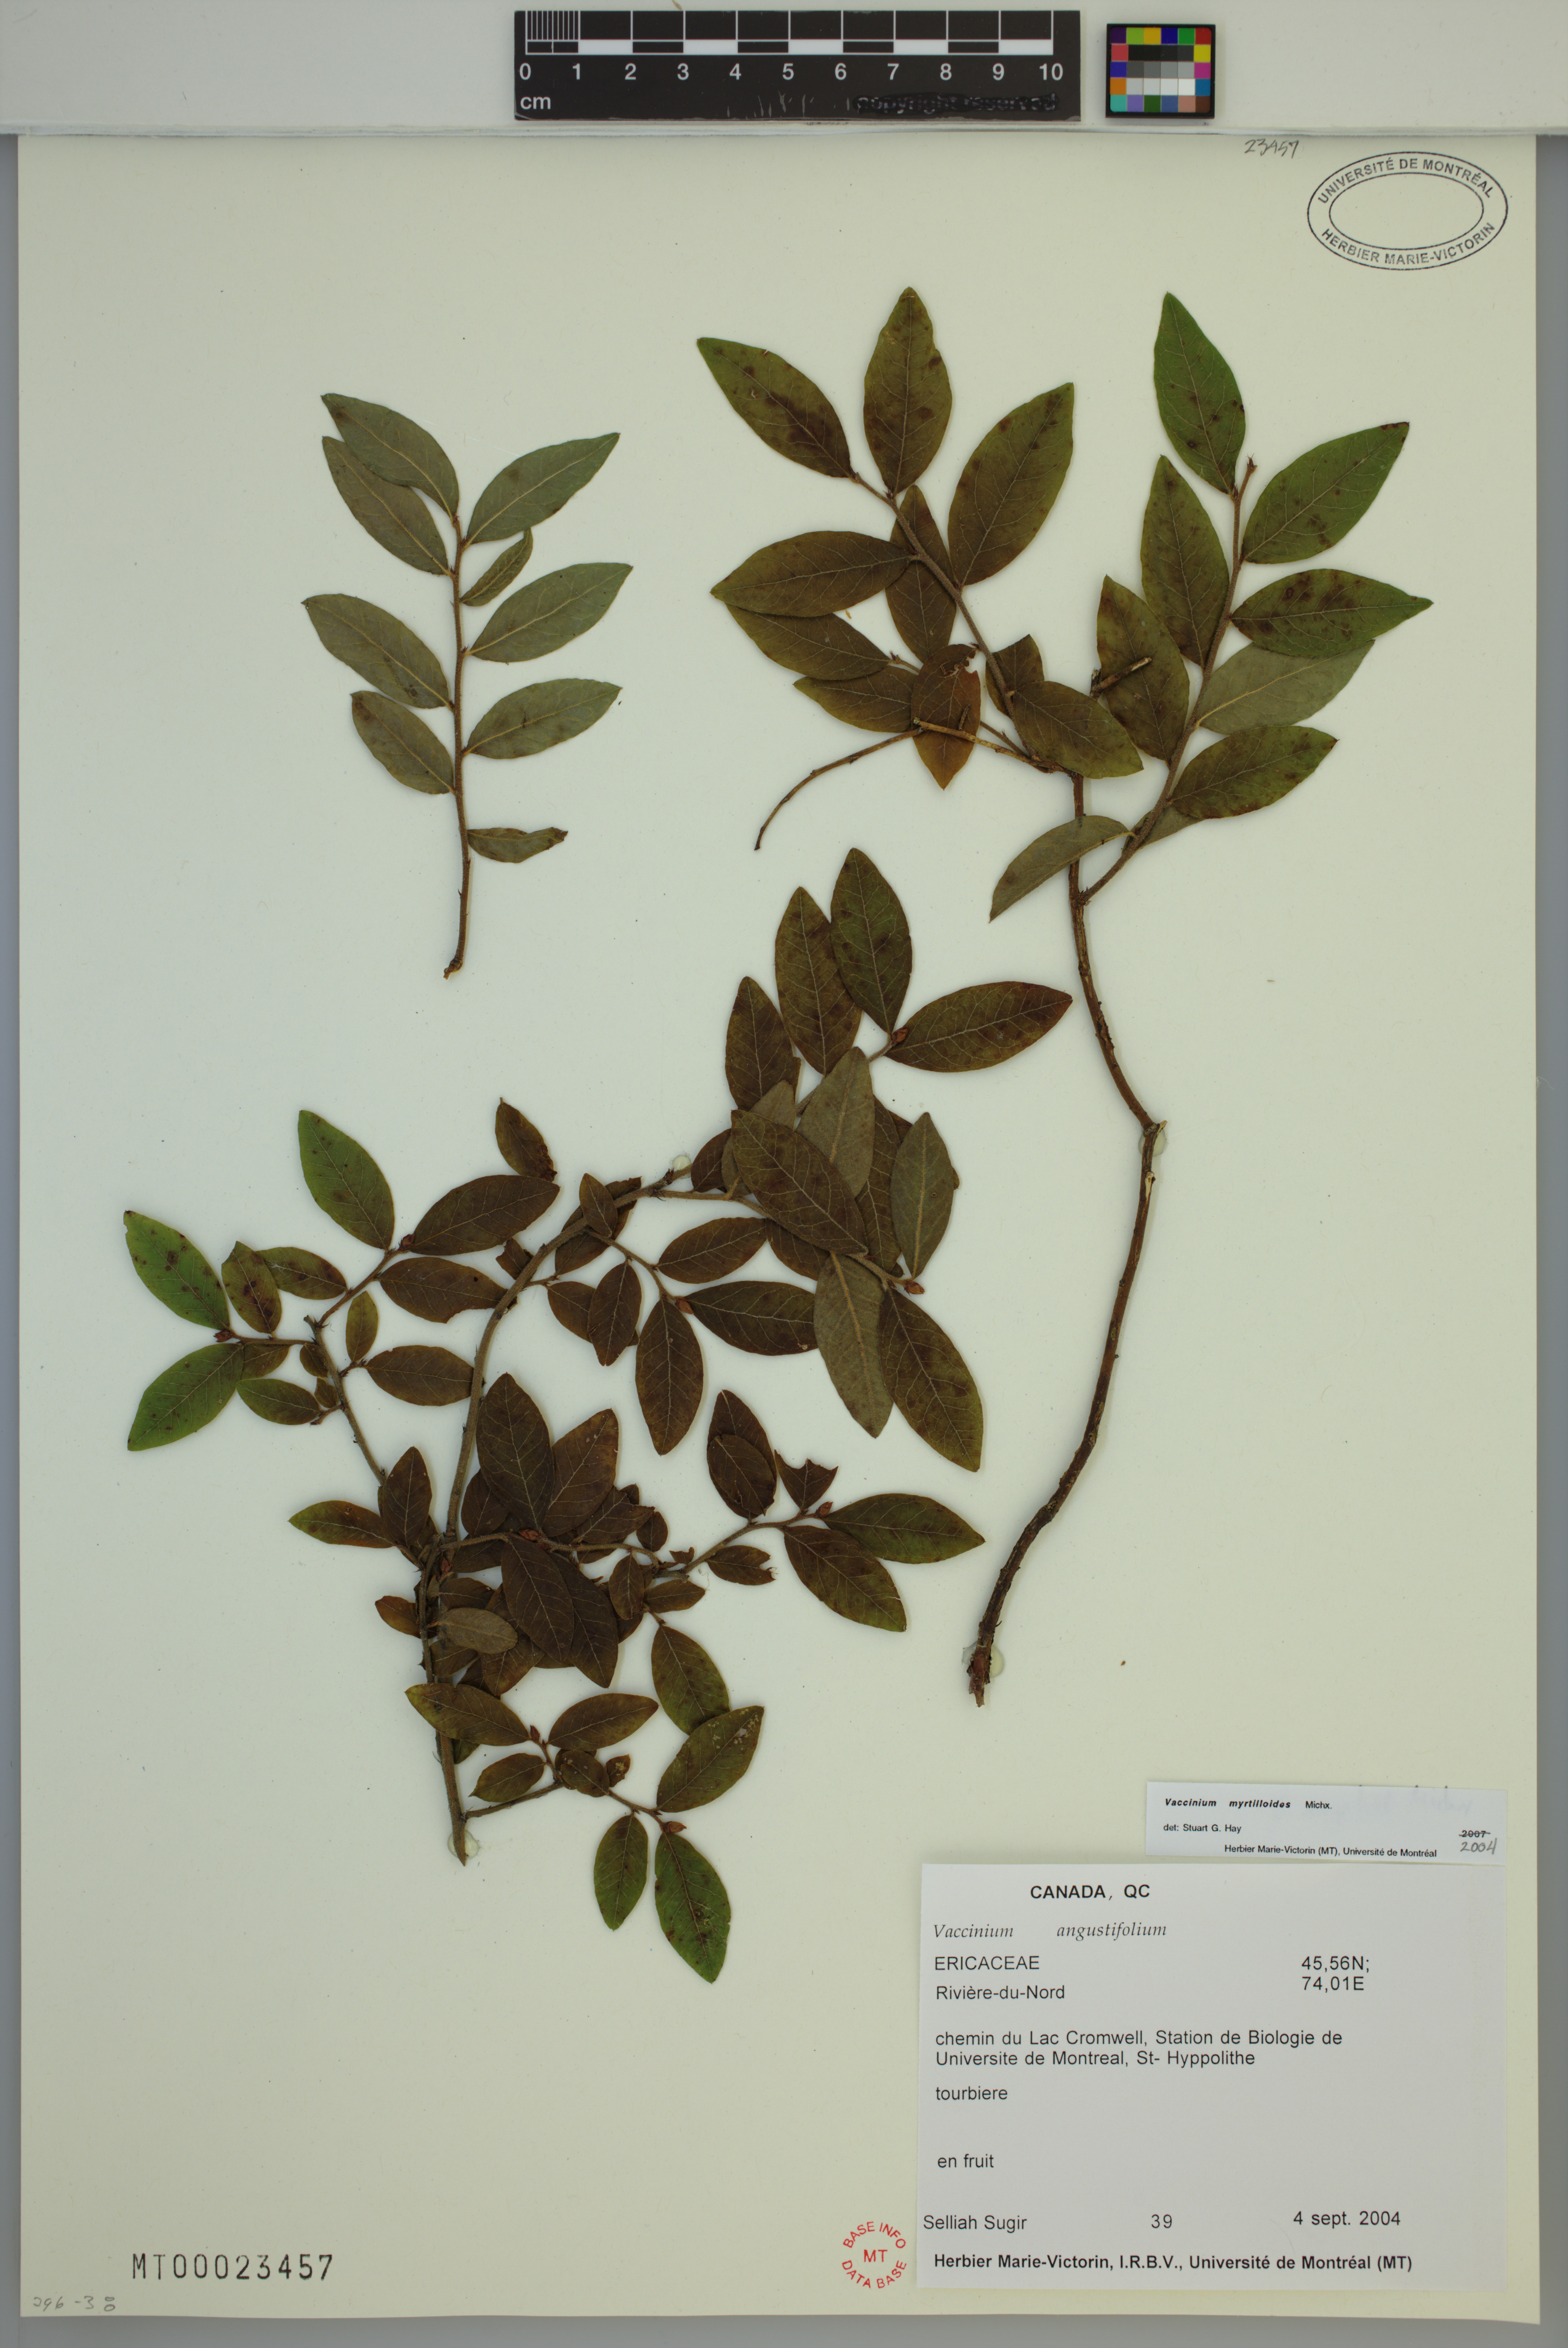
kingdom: Plantae
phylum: Tracheophyta
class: Magnoliopsida
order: Ericales
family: Ericaceae
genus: Vaccinium
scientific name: Vaccinium myrtilloides
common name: Canada blueberry
